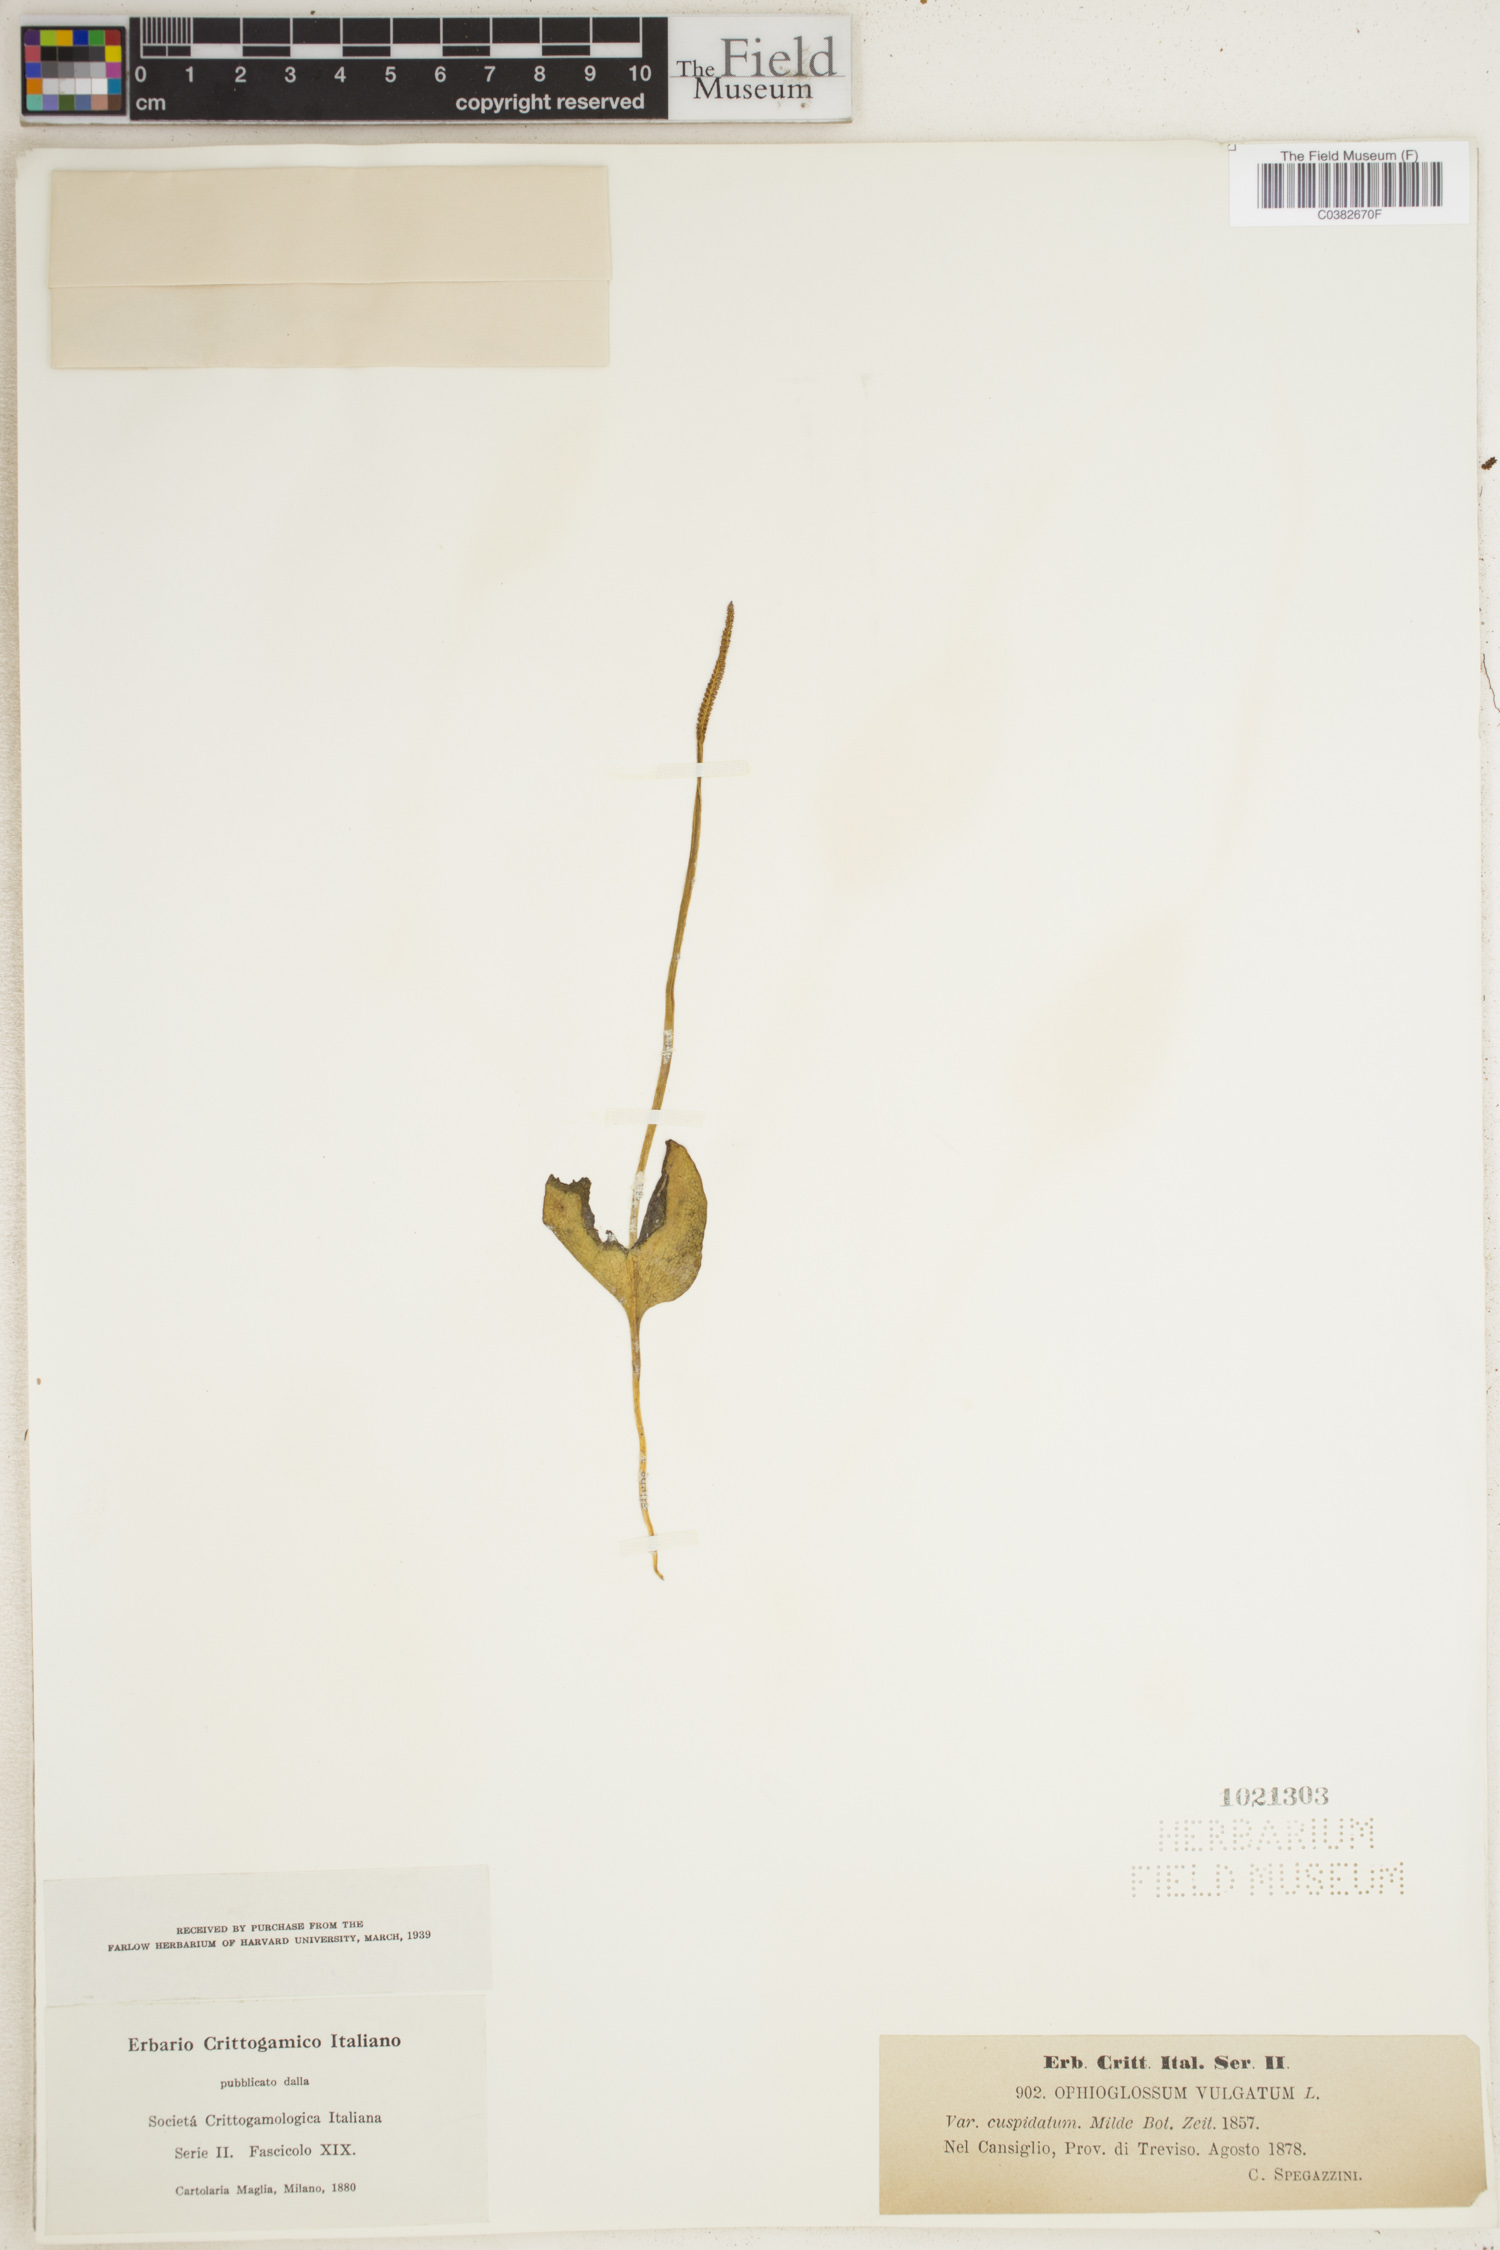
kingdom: Plantae
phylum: Tracheophyta
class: Polypodiopsida
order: Ophioglossales
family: Ophioglossaceae
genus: Ophioglossum
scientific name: Ophioglossum vulgatum
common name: Adder's-tongue
